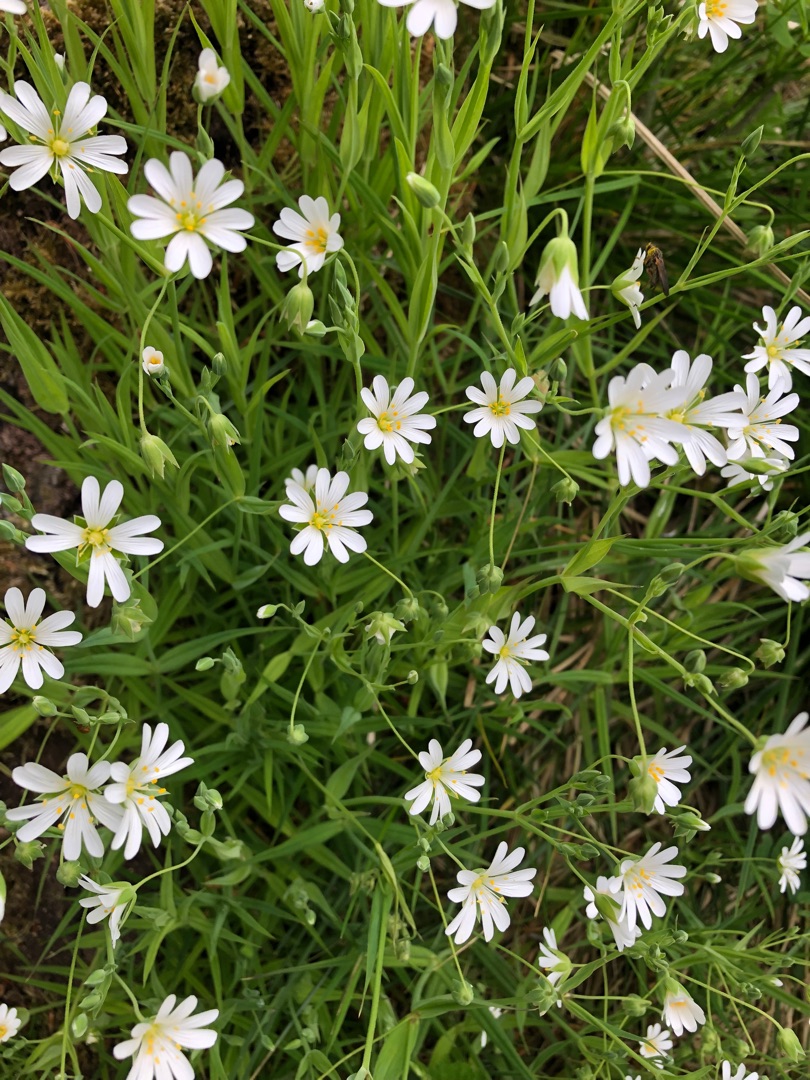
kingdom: Plantae
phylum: Tracheophyta
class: Magnoliopsida
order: Caryophyllales
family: Caryophyllaceae
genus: Rabelera
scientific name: Rabelera holostea
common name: Stor fladstjerne
